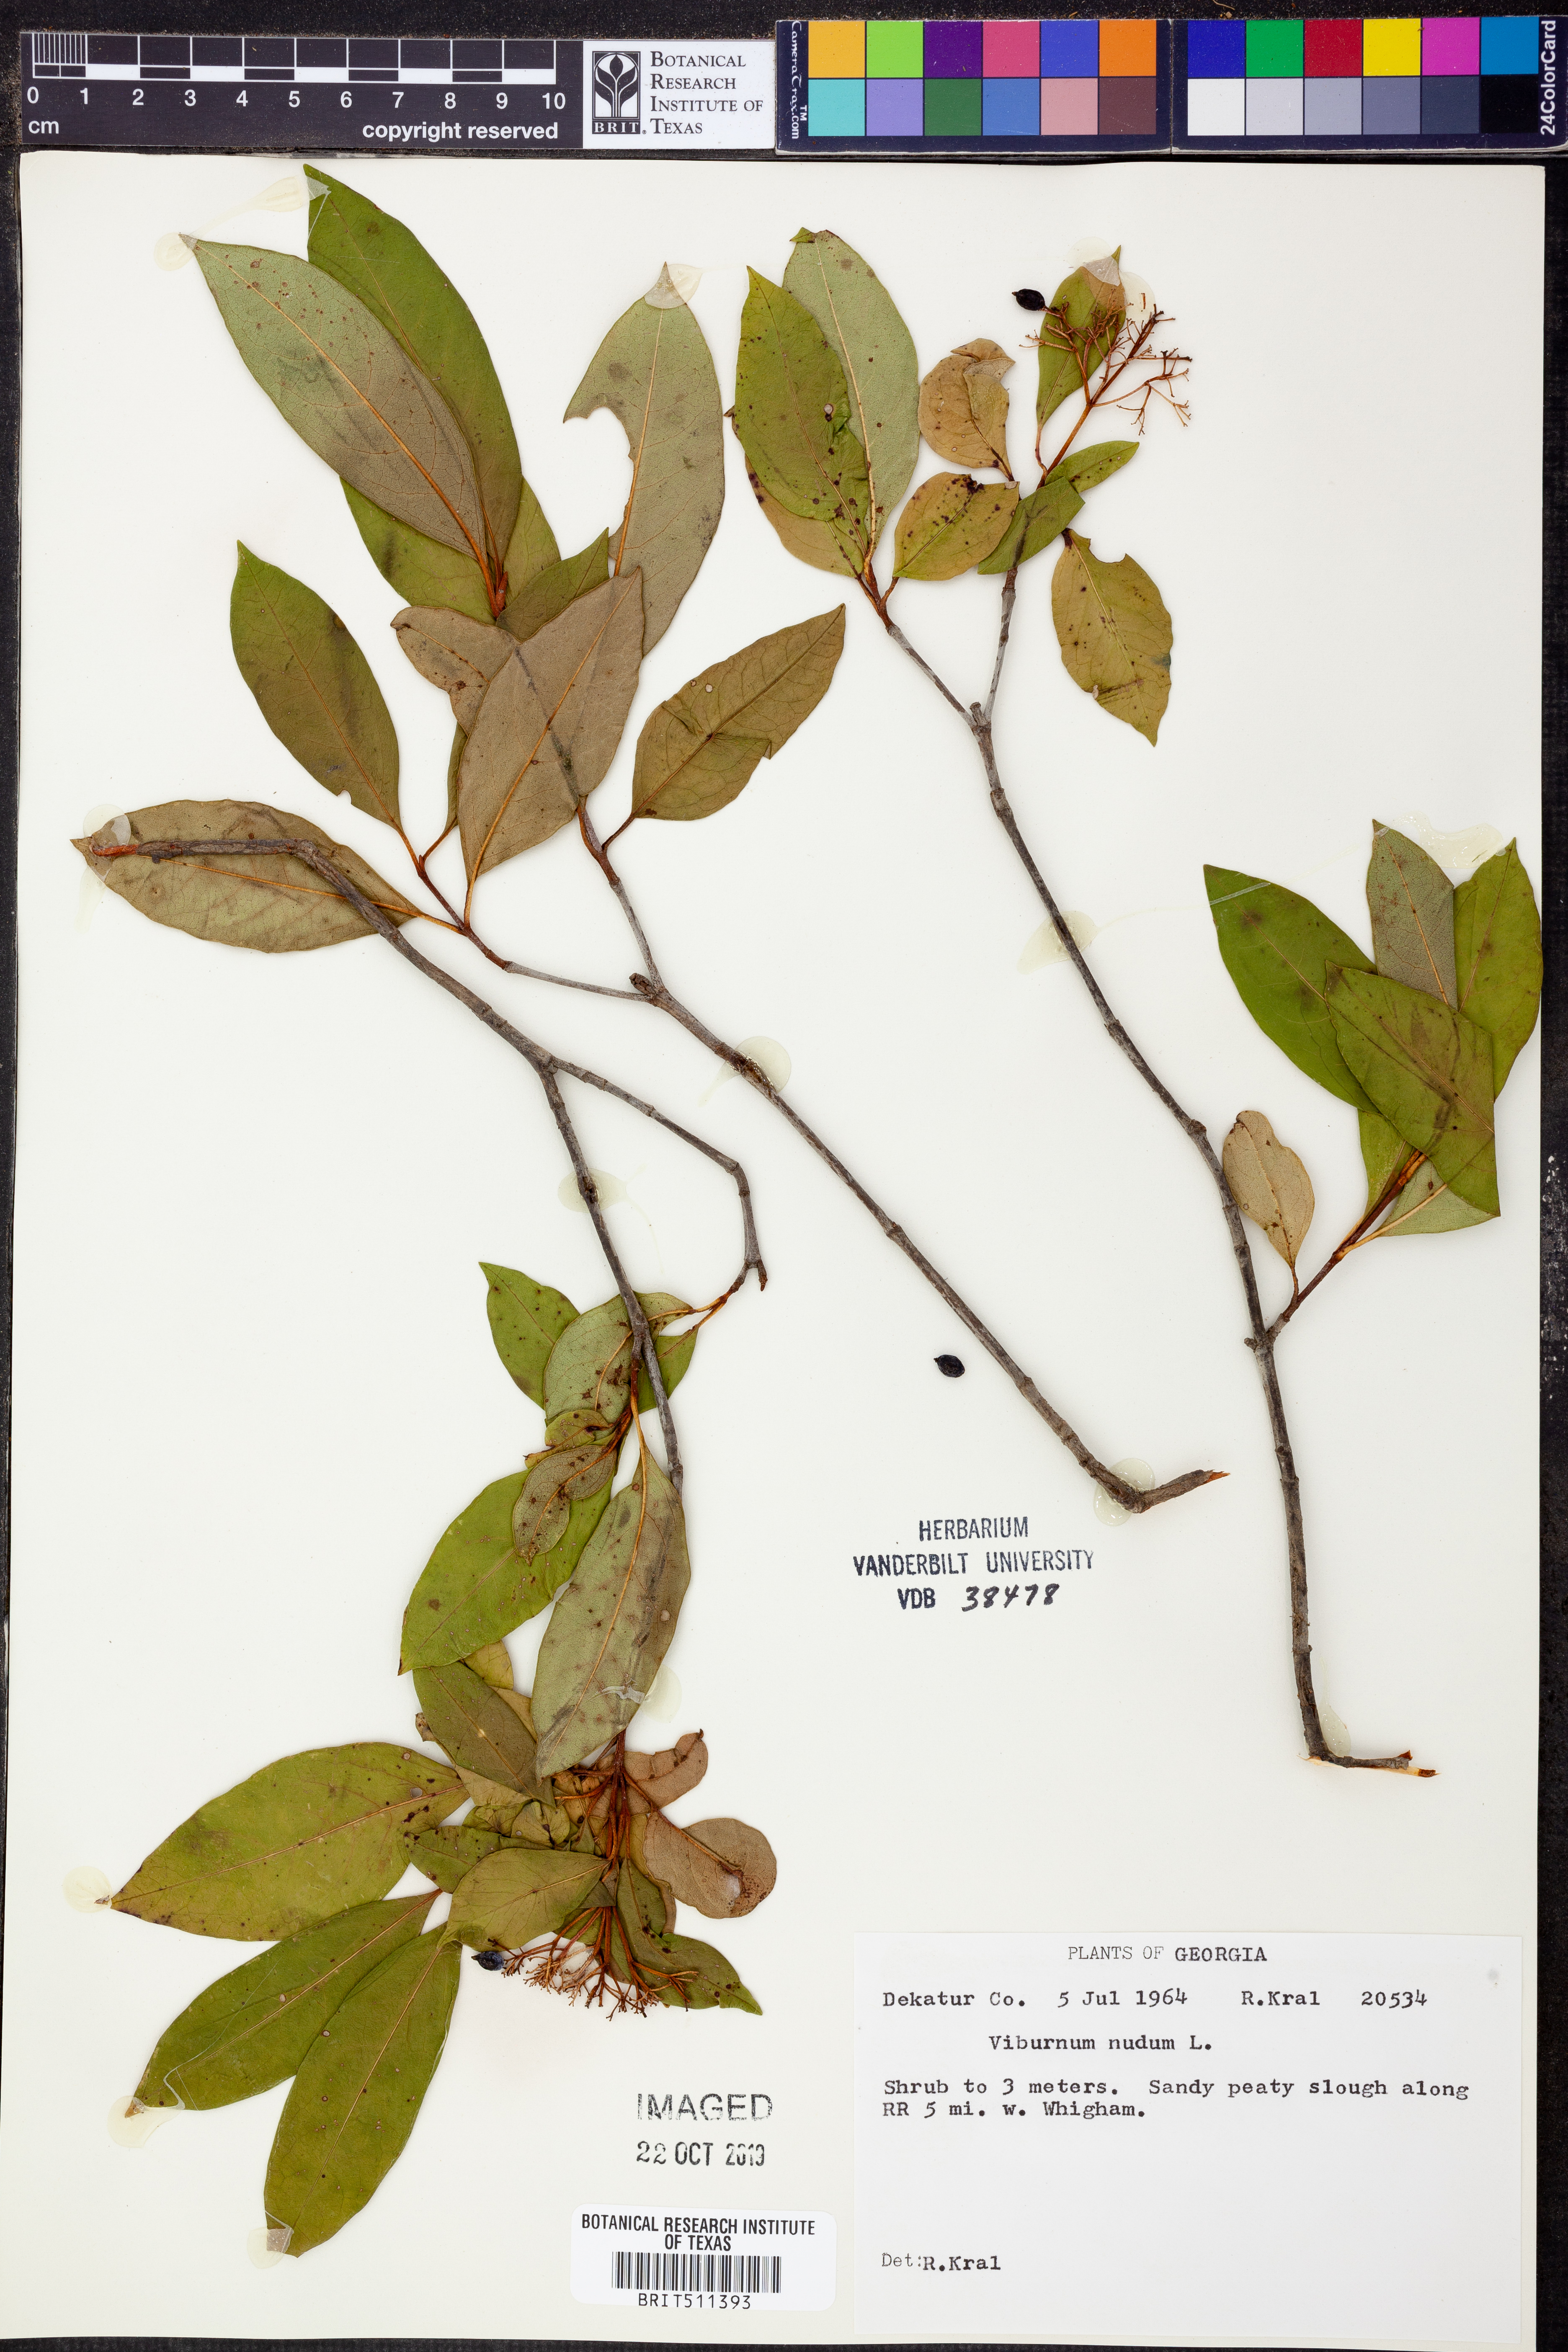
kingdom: Plantae
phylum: Tracheophyta
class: Magnoliopsida
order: Dipsacales
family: Viburnaceae
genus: Viburnum
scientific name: Viburnum nudum
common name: Possum haw
